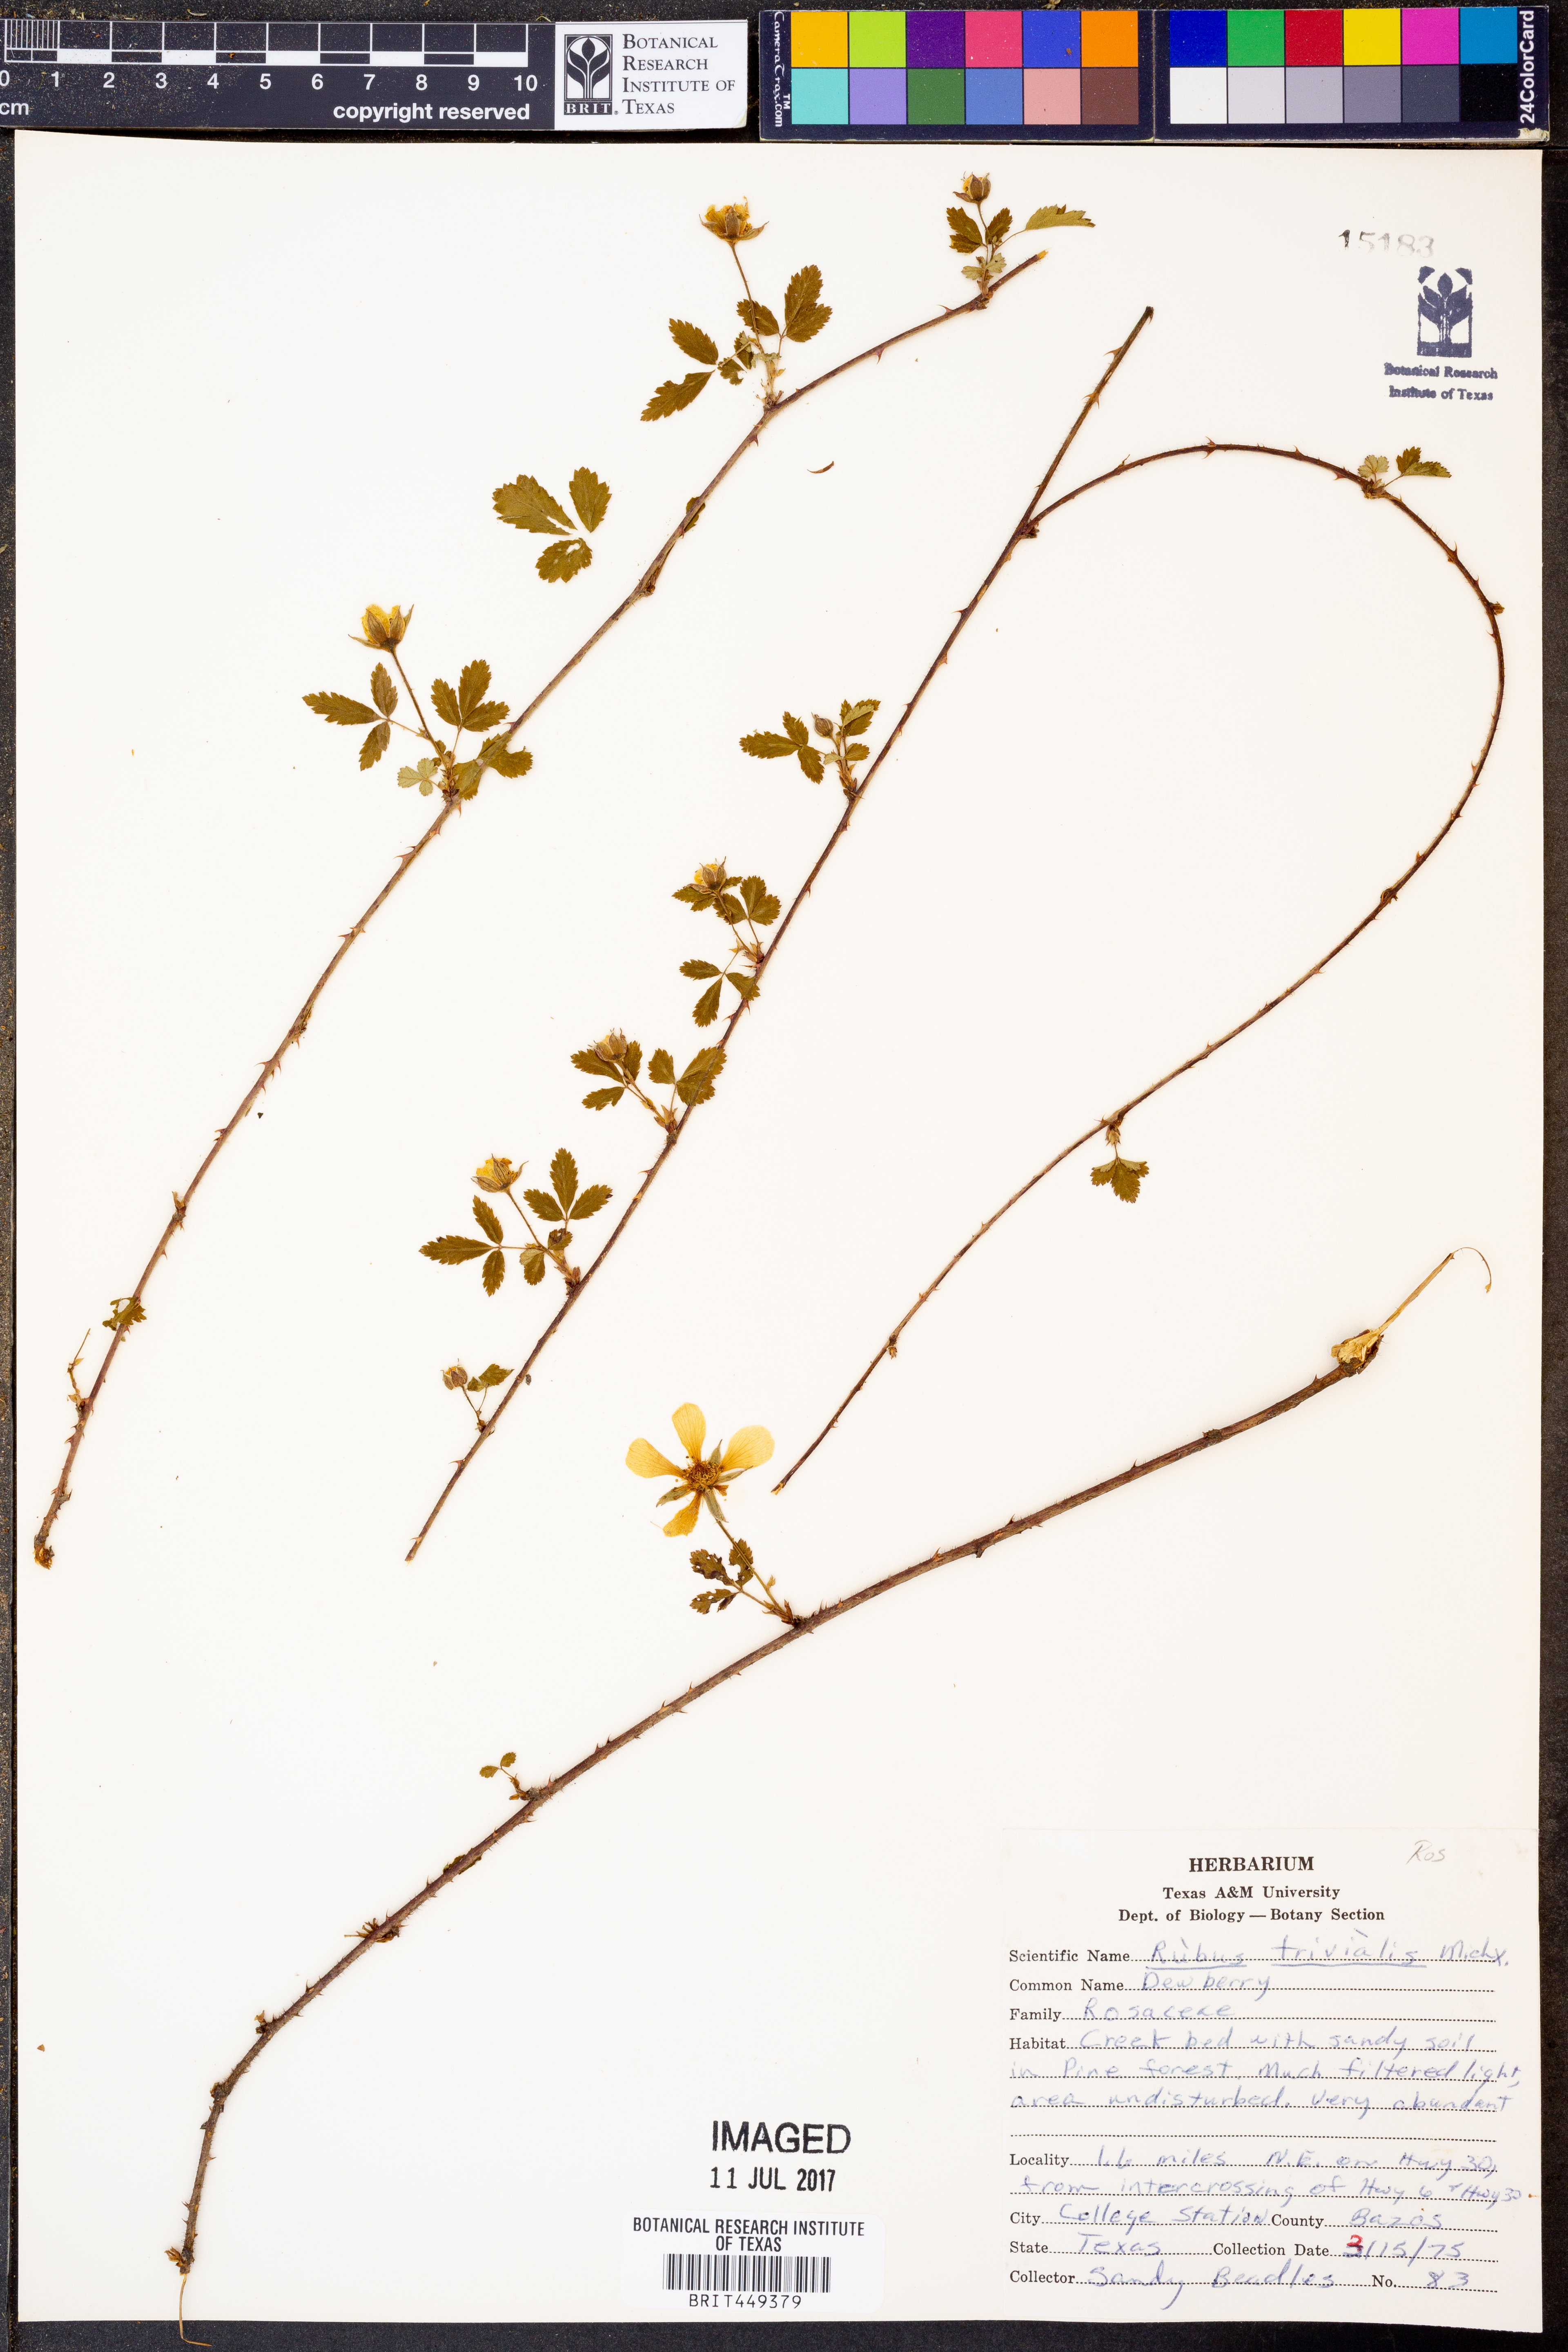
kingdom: Plantae
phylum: Tracheophyta
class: Magnoliopsida
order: Rosales
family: Rosaceae
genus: Rubus
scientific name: Rubus trivialis
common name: Southern dewberry
